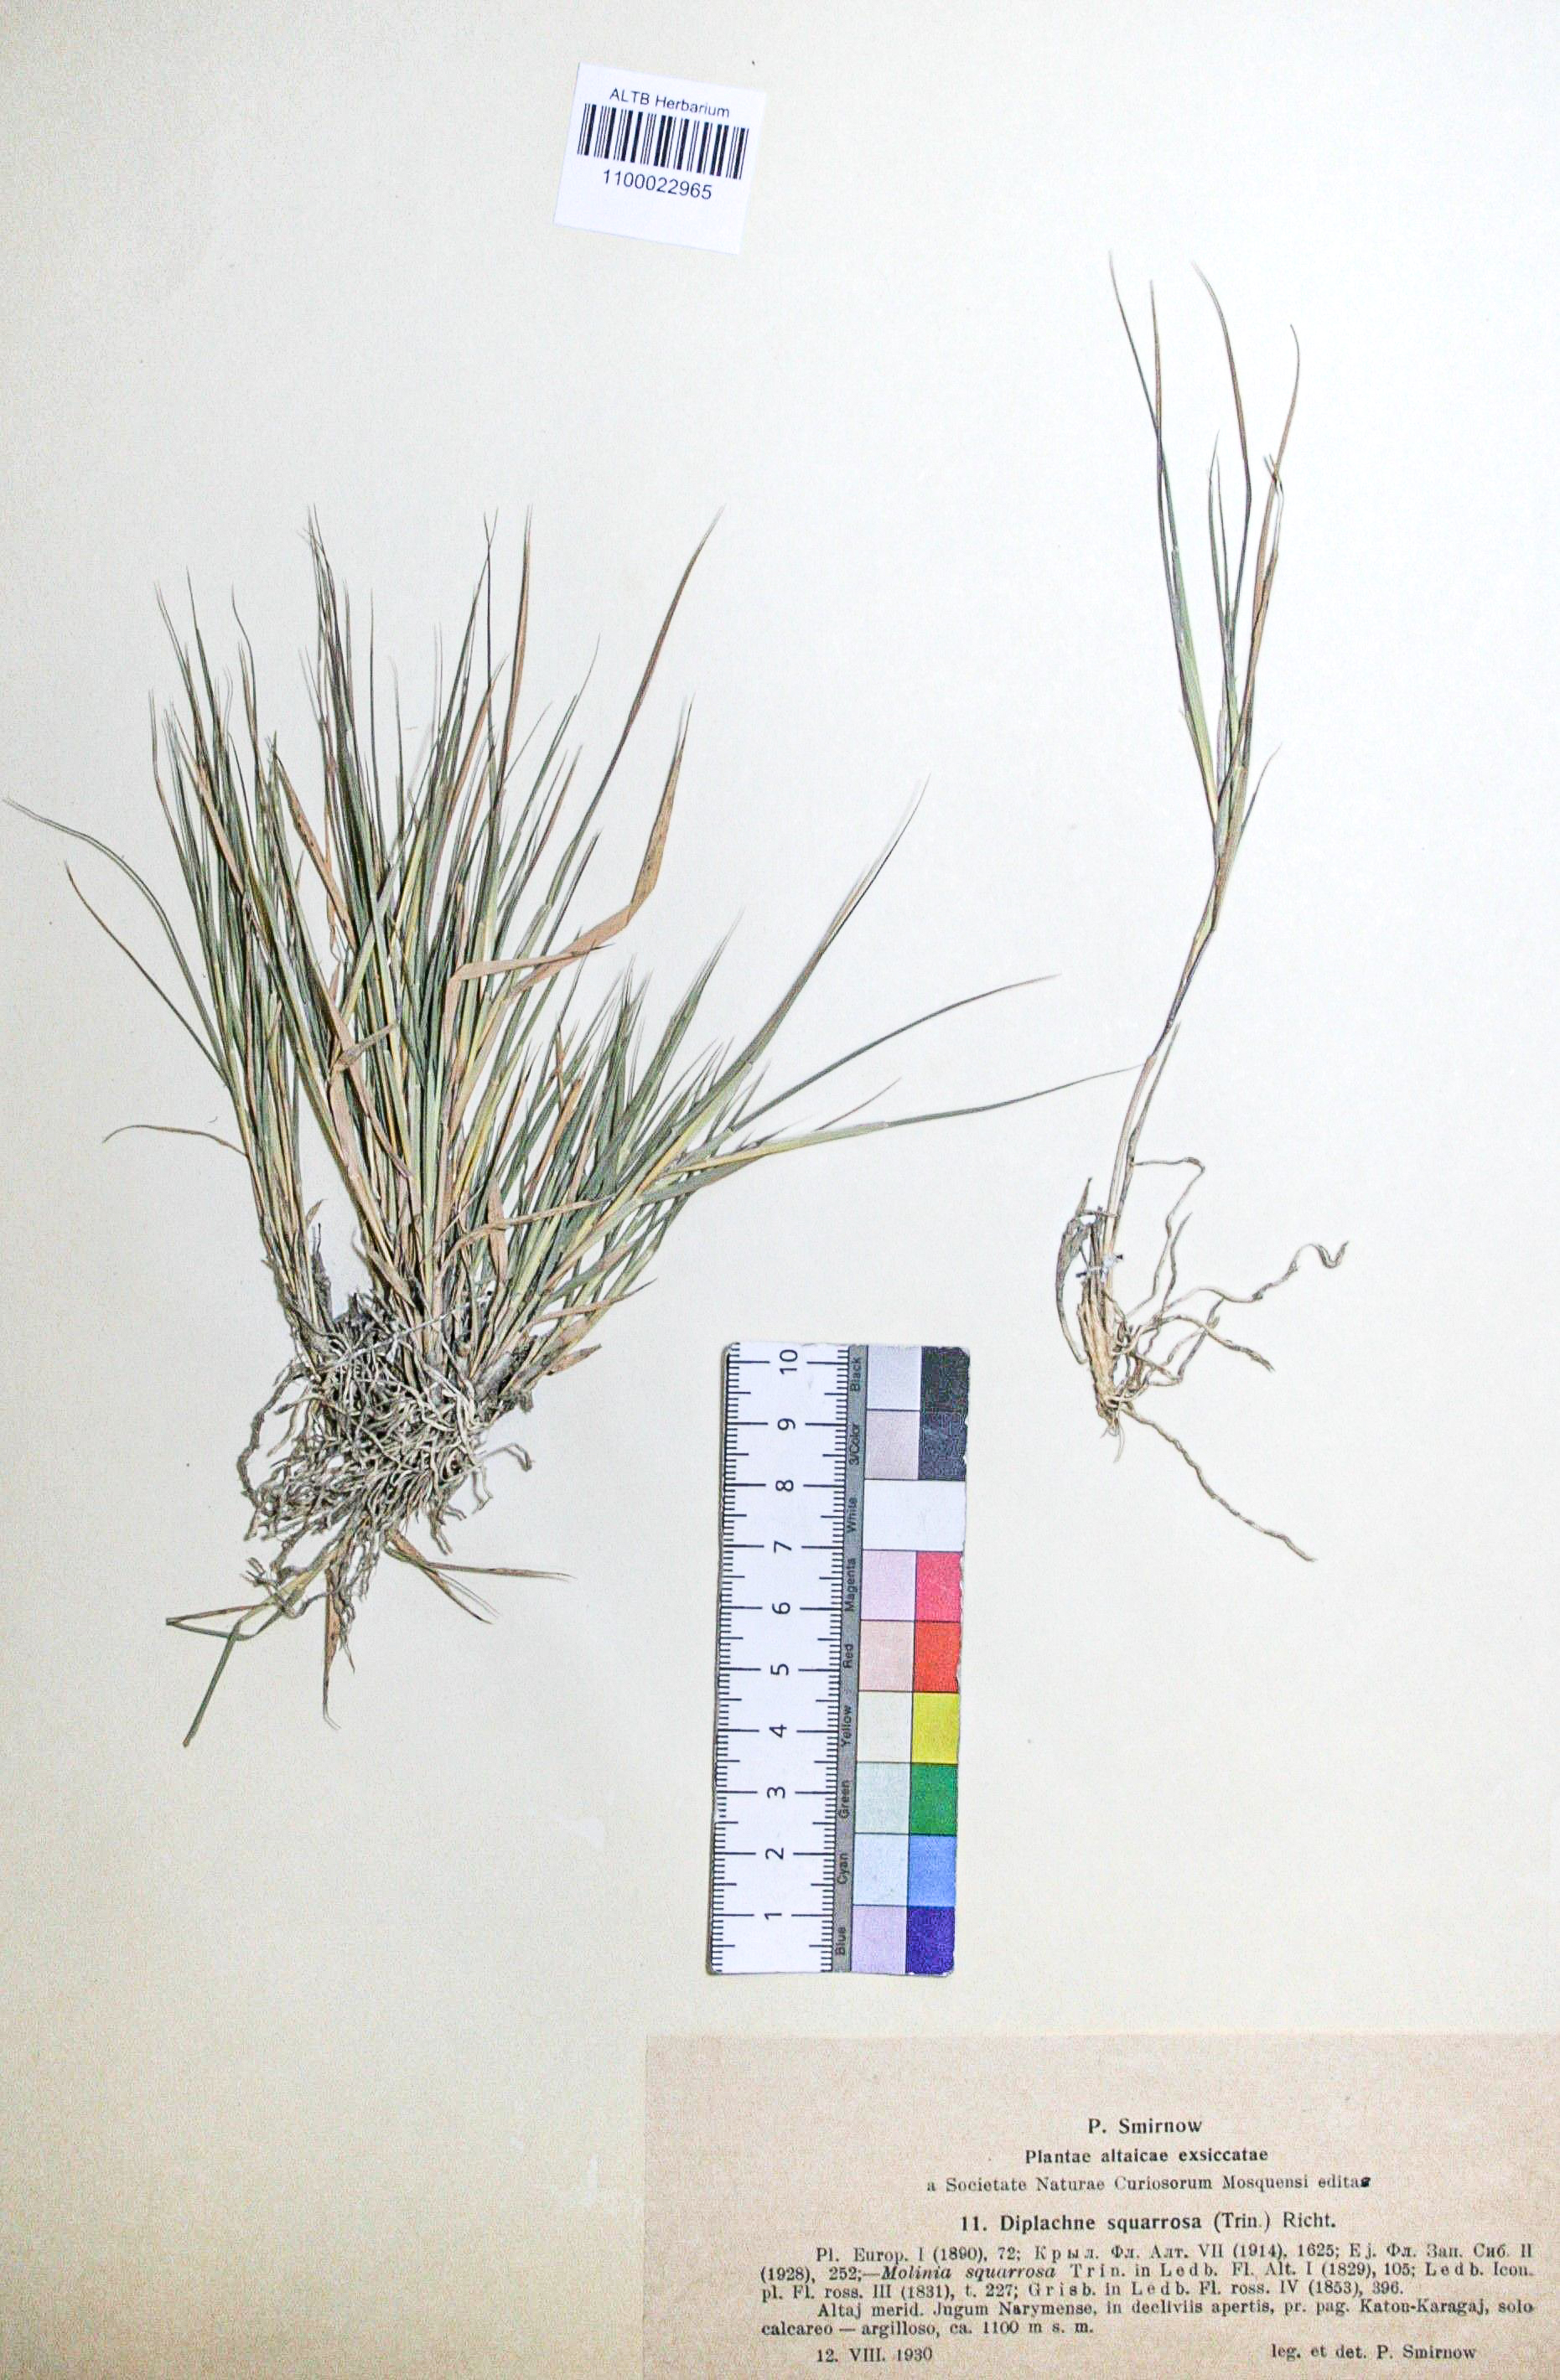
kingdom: Plantae
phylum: Tracheophyta
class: Liliopsida
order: Poales
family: Poaceae
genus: Cleistogenes
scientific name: Cleistogenes squarrosa
